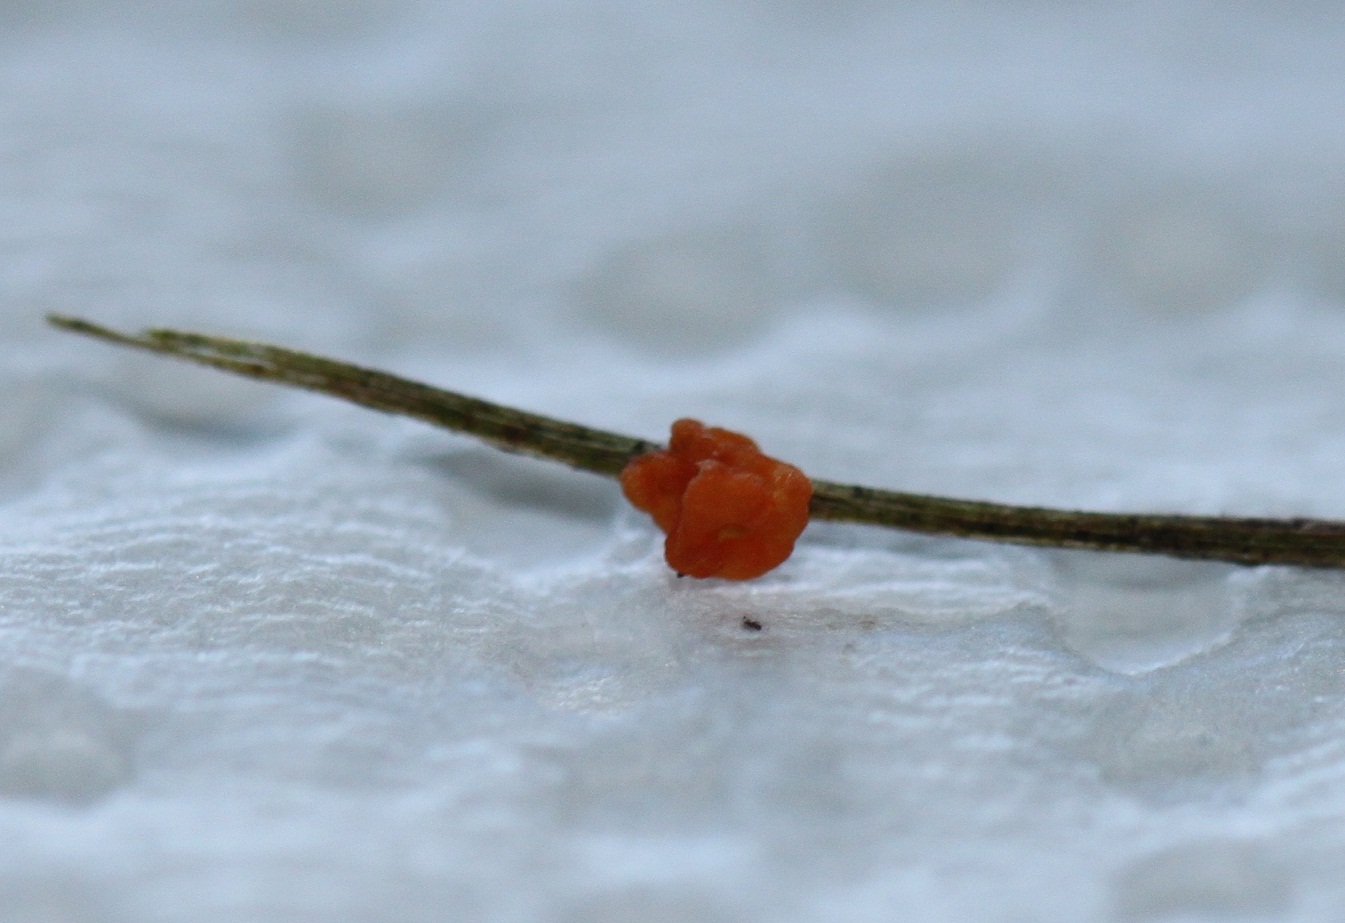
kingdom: Fungi
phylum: Basidiomycota
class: Tremellomycetes
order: Tremellales
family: Rhynchogastremaceae
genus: Tetragoniomyces
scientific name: Tetragoniomyces uliginosus
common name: sklerotie-snyltehjerne
